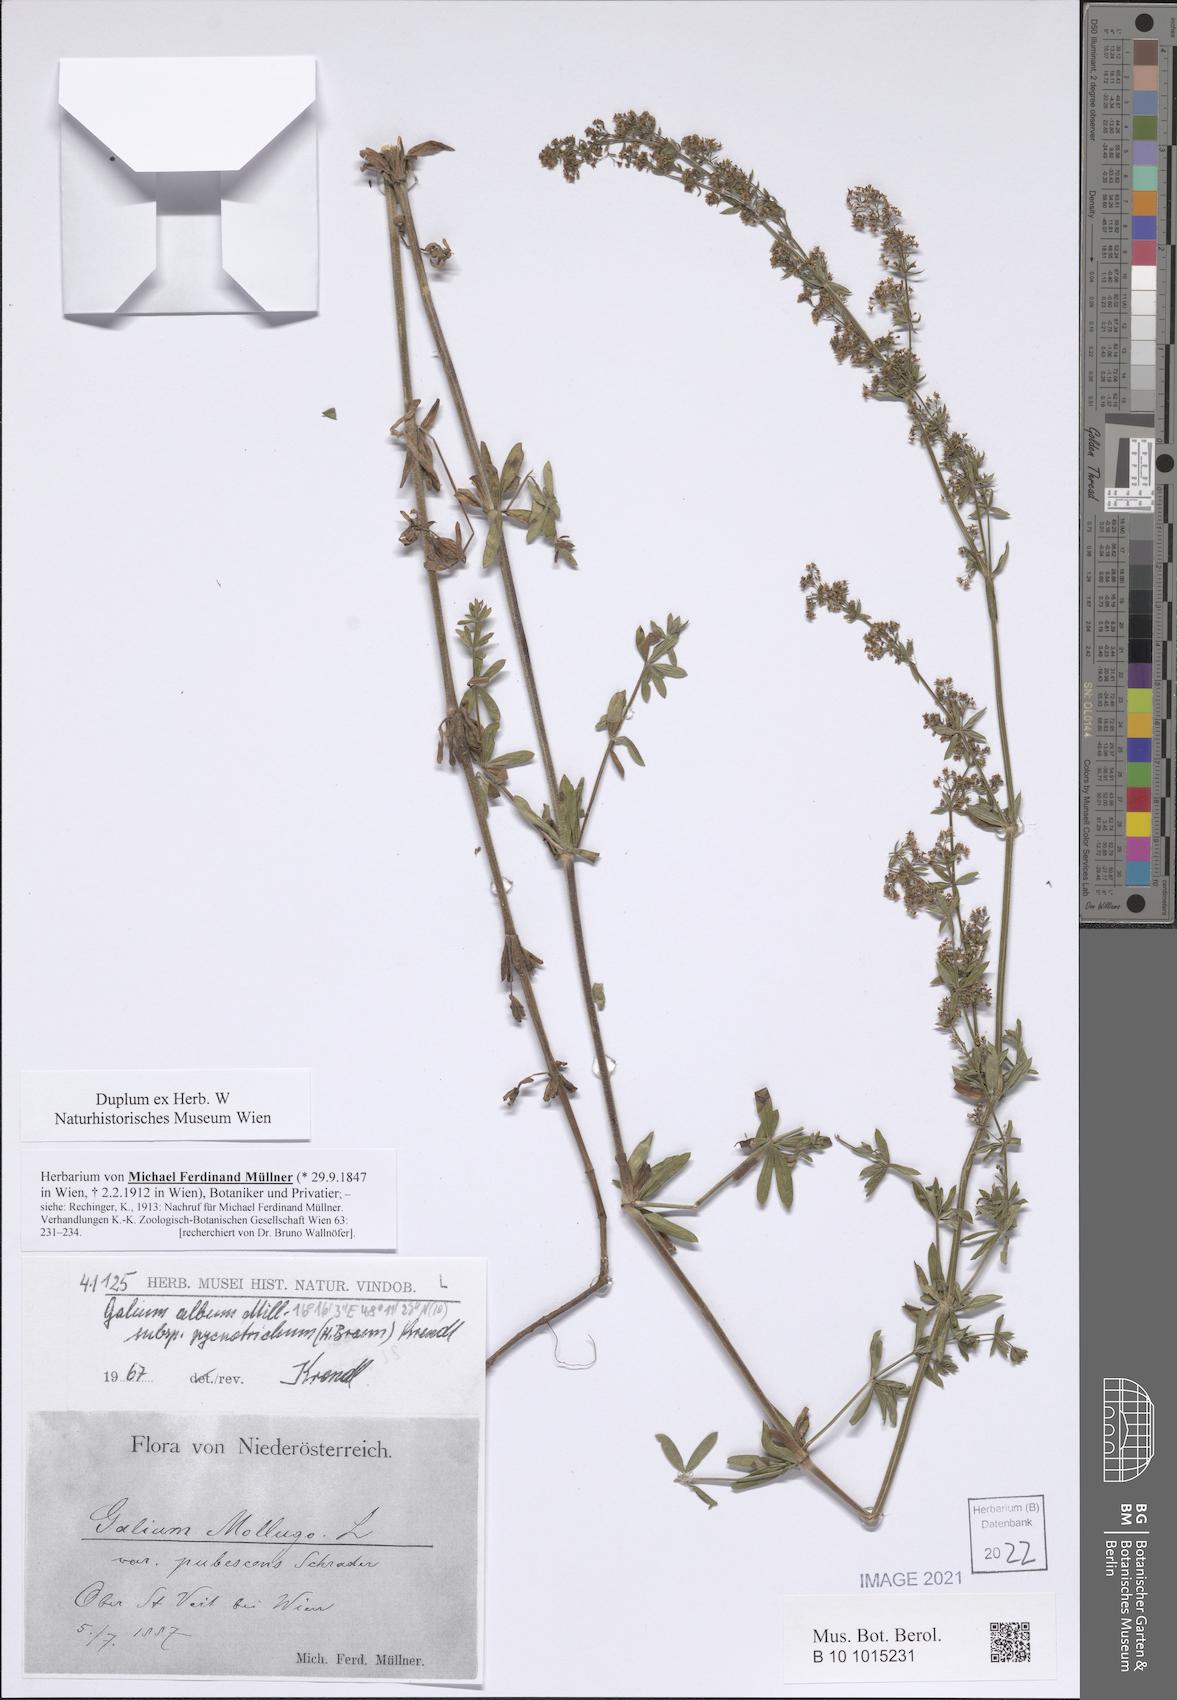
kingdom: Plantae
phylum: Tracheophyta
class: Magnoliopsida
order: Gentianales
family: Rubiaceae
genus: Galium
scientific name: Galium album
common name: White bedstraw
